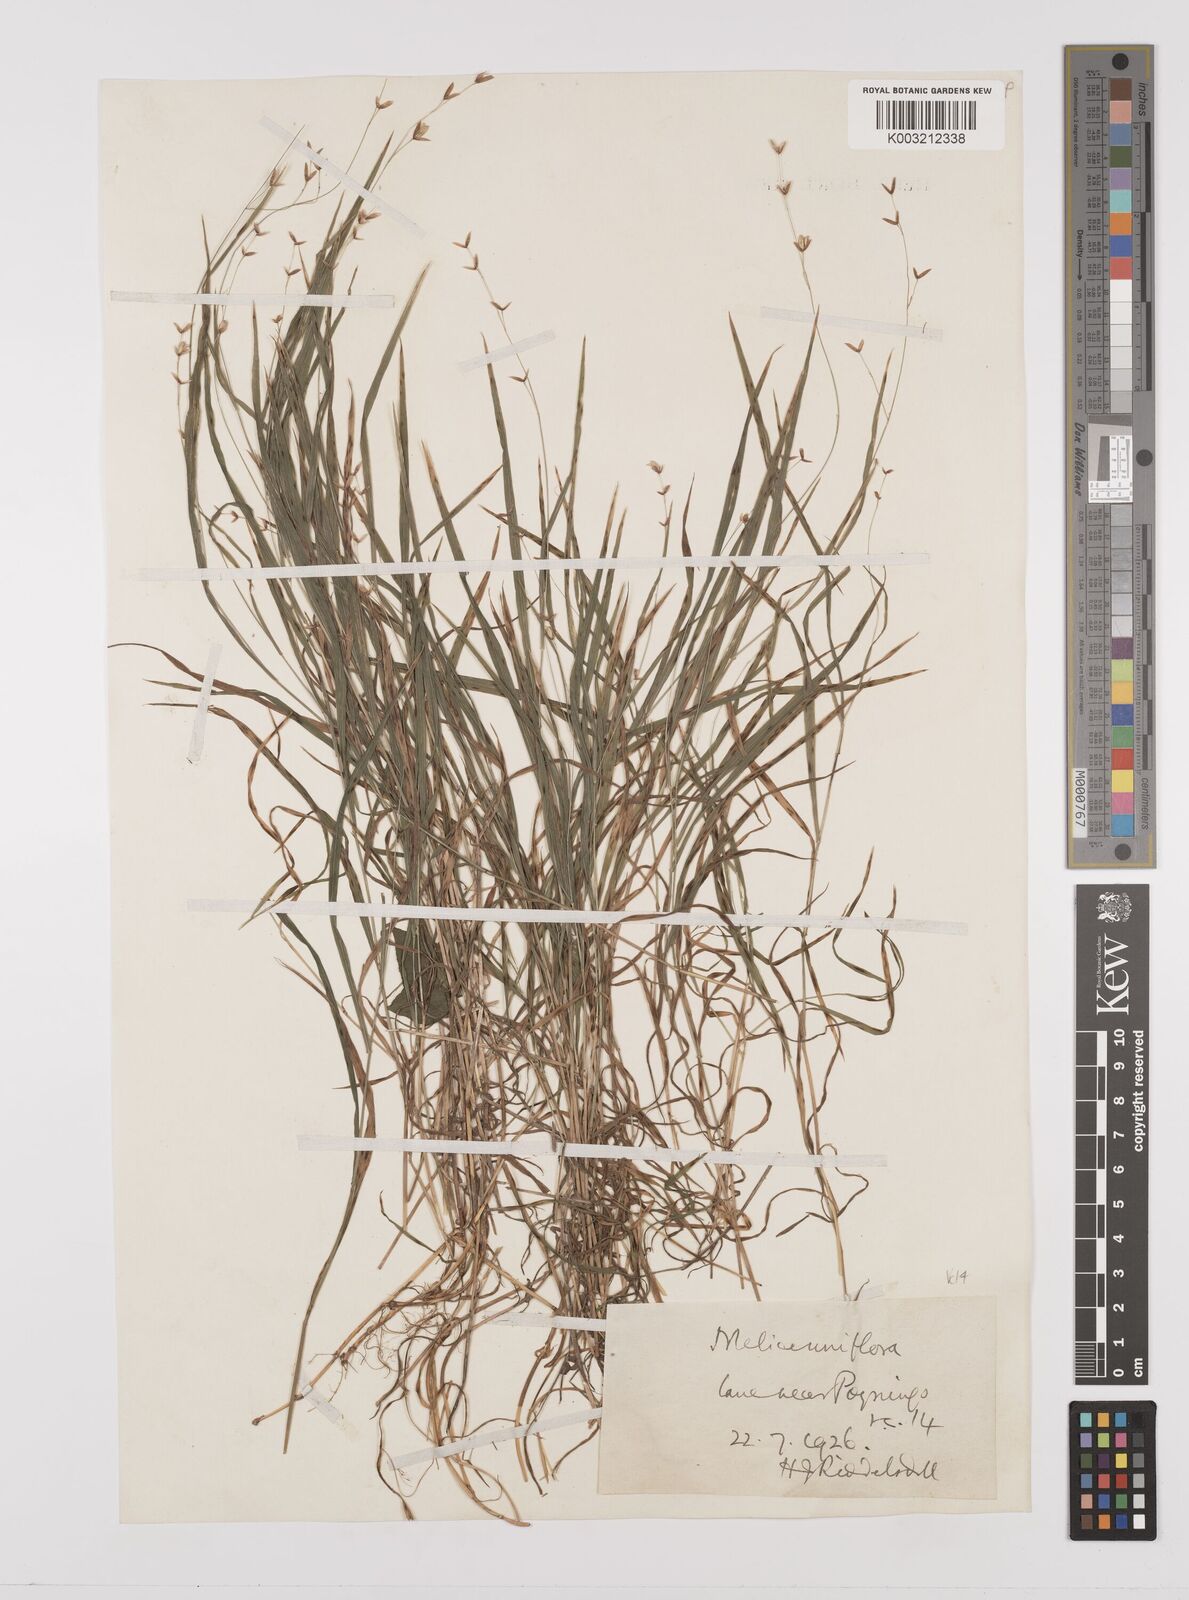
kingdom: Plantae
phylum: Tracheophyta
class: Liliopsida
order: Poales
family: Poaceae
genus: Melica
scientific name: Melica uniflora
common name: Wood melick
